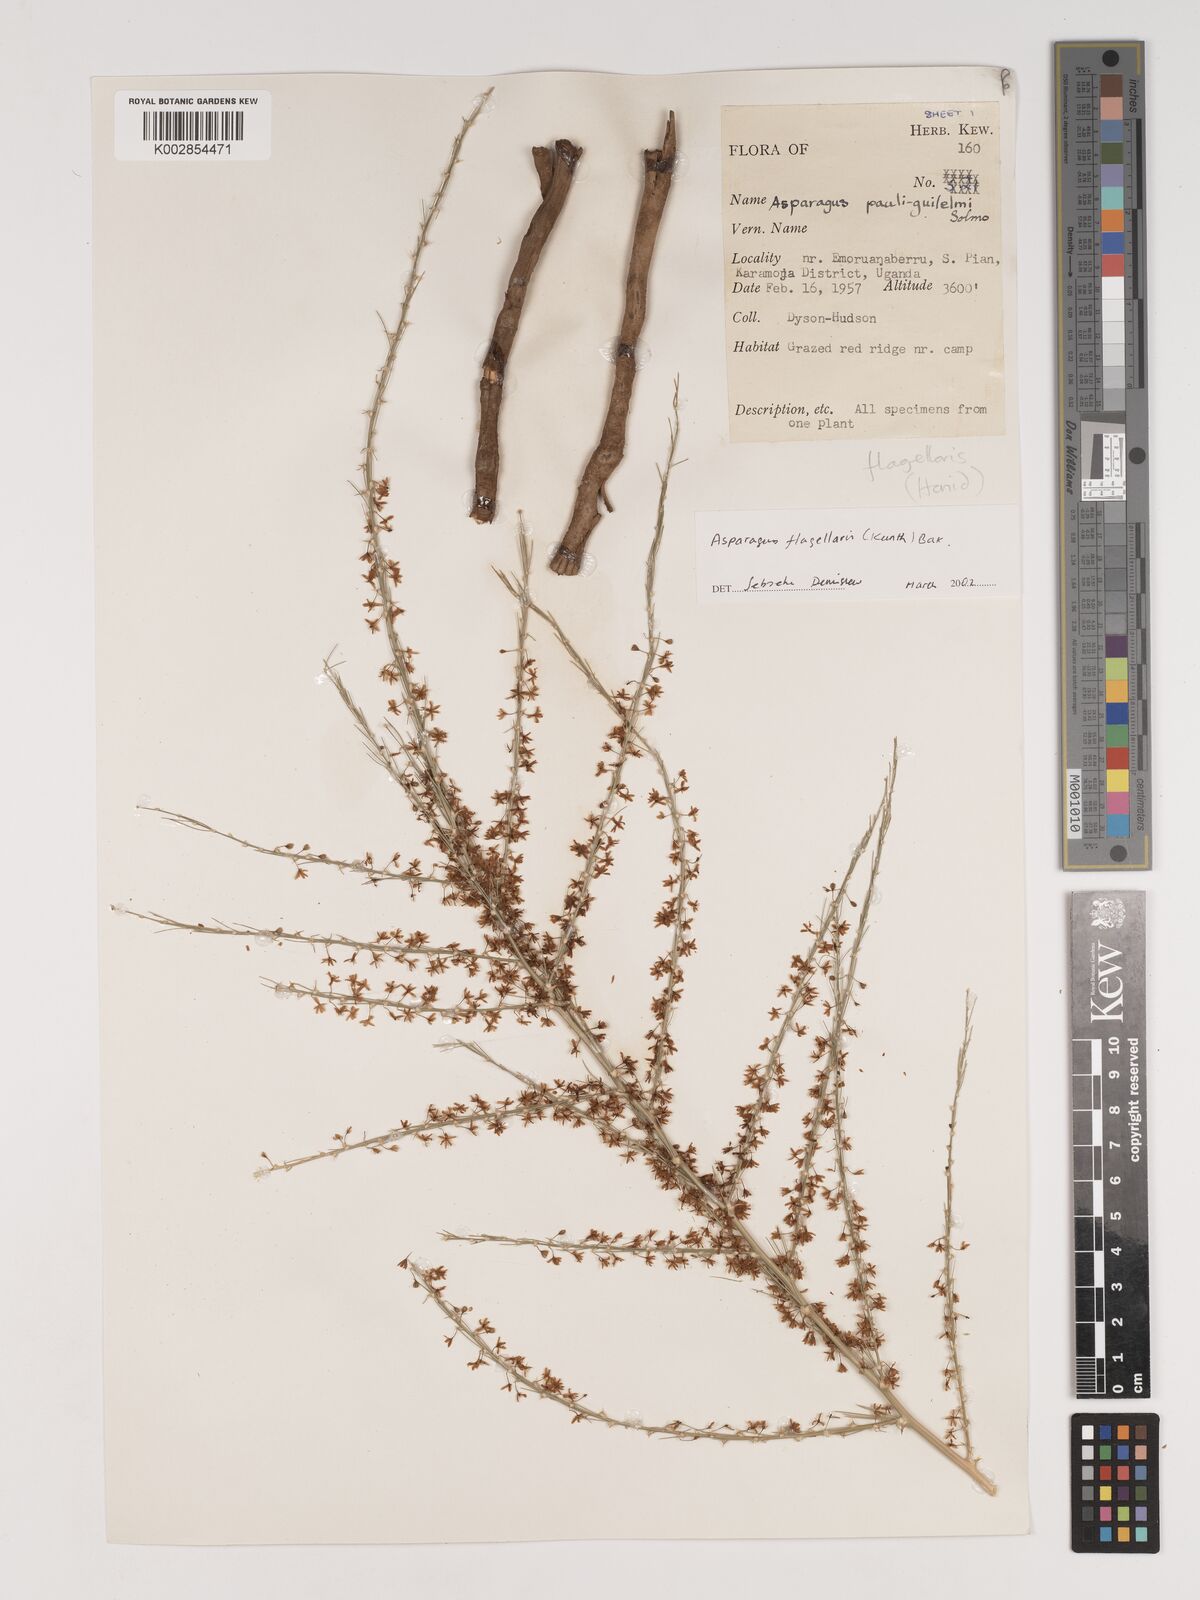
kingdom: Plantae
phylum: Tracheophyta
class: Liliopsida
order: Asparagales
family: Asparagaceae
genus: Asparagus
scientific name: Asparagus flagellaris
